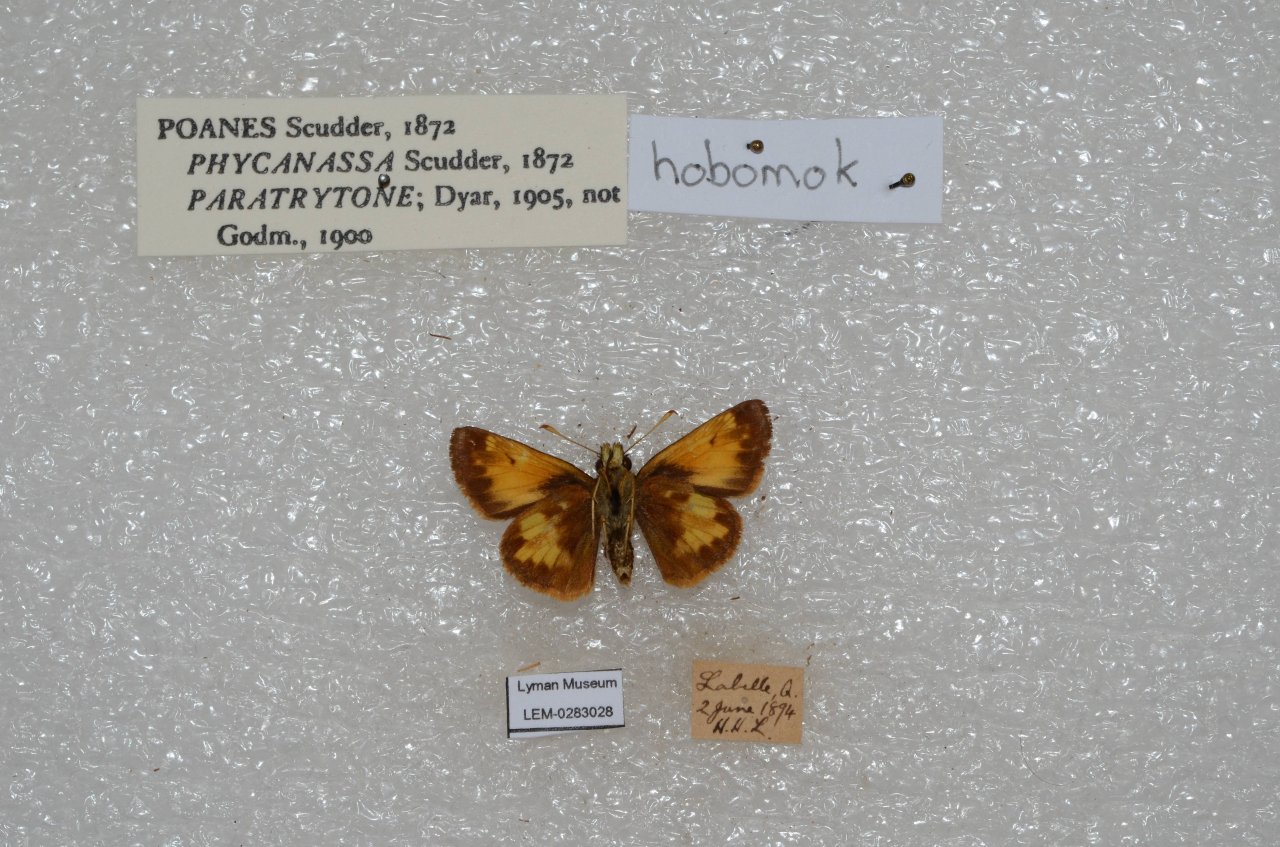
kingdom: Animalia
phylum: Arthropoda
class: Insecta
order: Lepidoptera
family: Hesperiidae
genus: Lon
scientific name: Lon hobomok
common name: Hobomok Skipper
